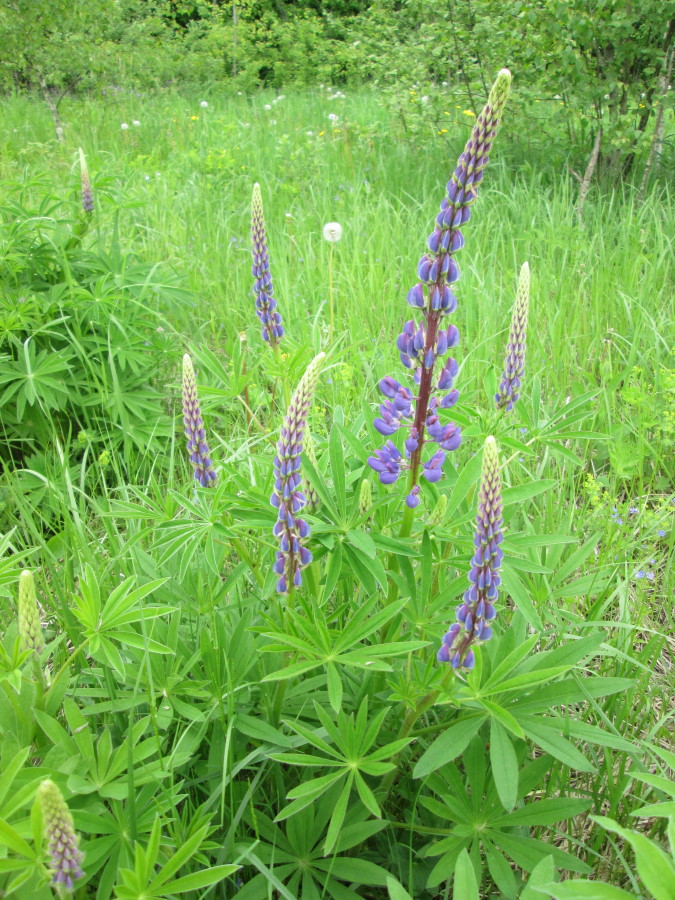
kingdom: Plantae
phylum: Tracheophyta
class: Magnoliopsida
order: Fabales
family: Fabaceae
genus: Lupinus
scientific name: Lupinus polyphyllus
